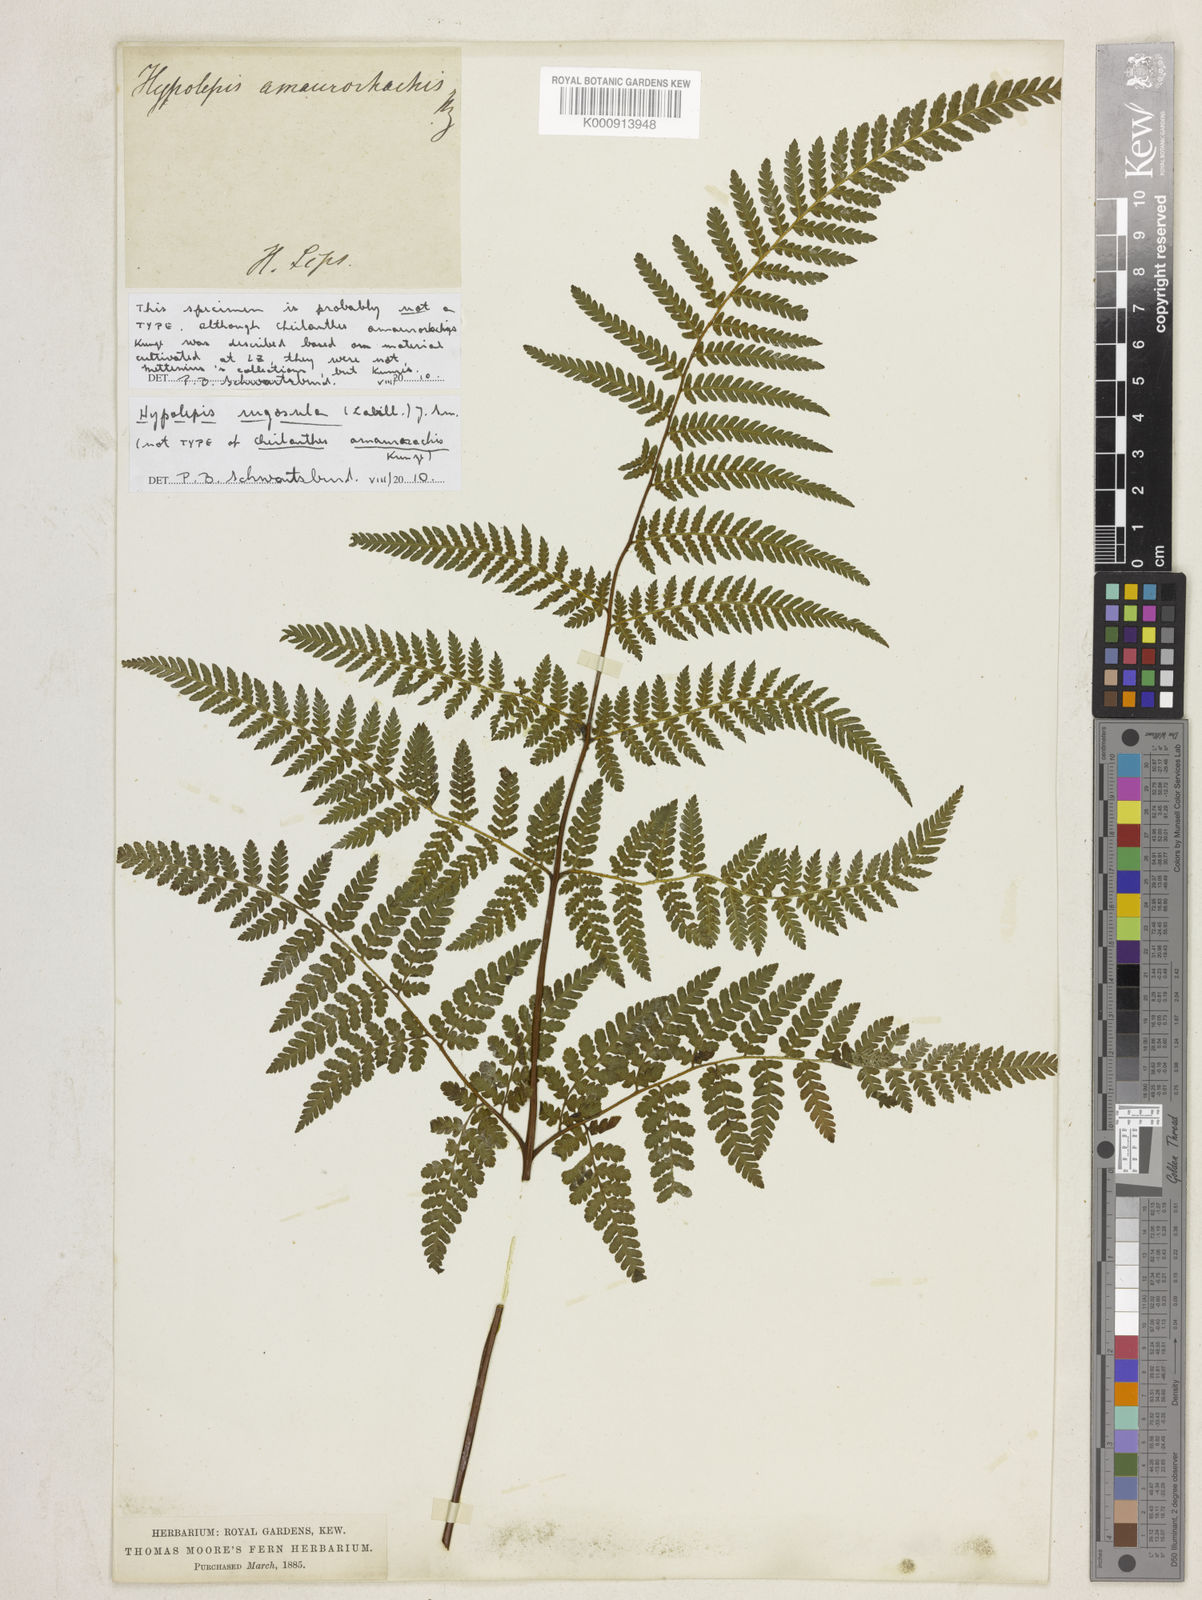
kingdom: Plantae
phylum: Tracheophyta
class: Polypodiopsida
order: Polypodiales
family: Dennstaedtiaceae
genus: Hypolepis
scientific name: Hypolepis rugosula
